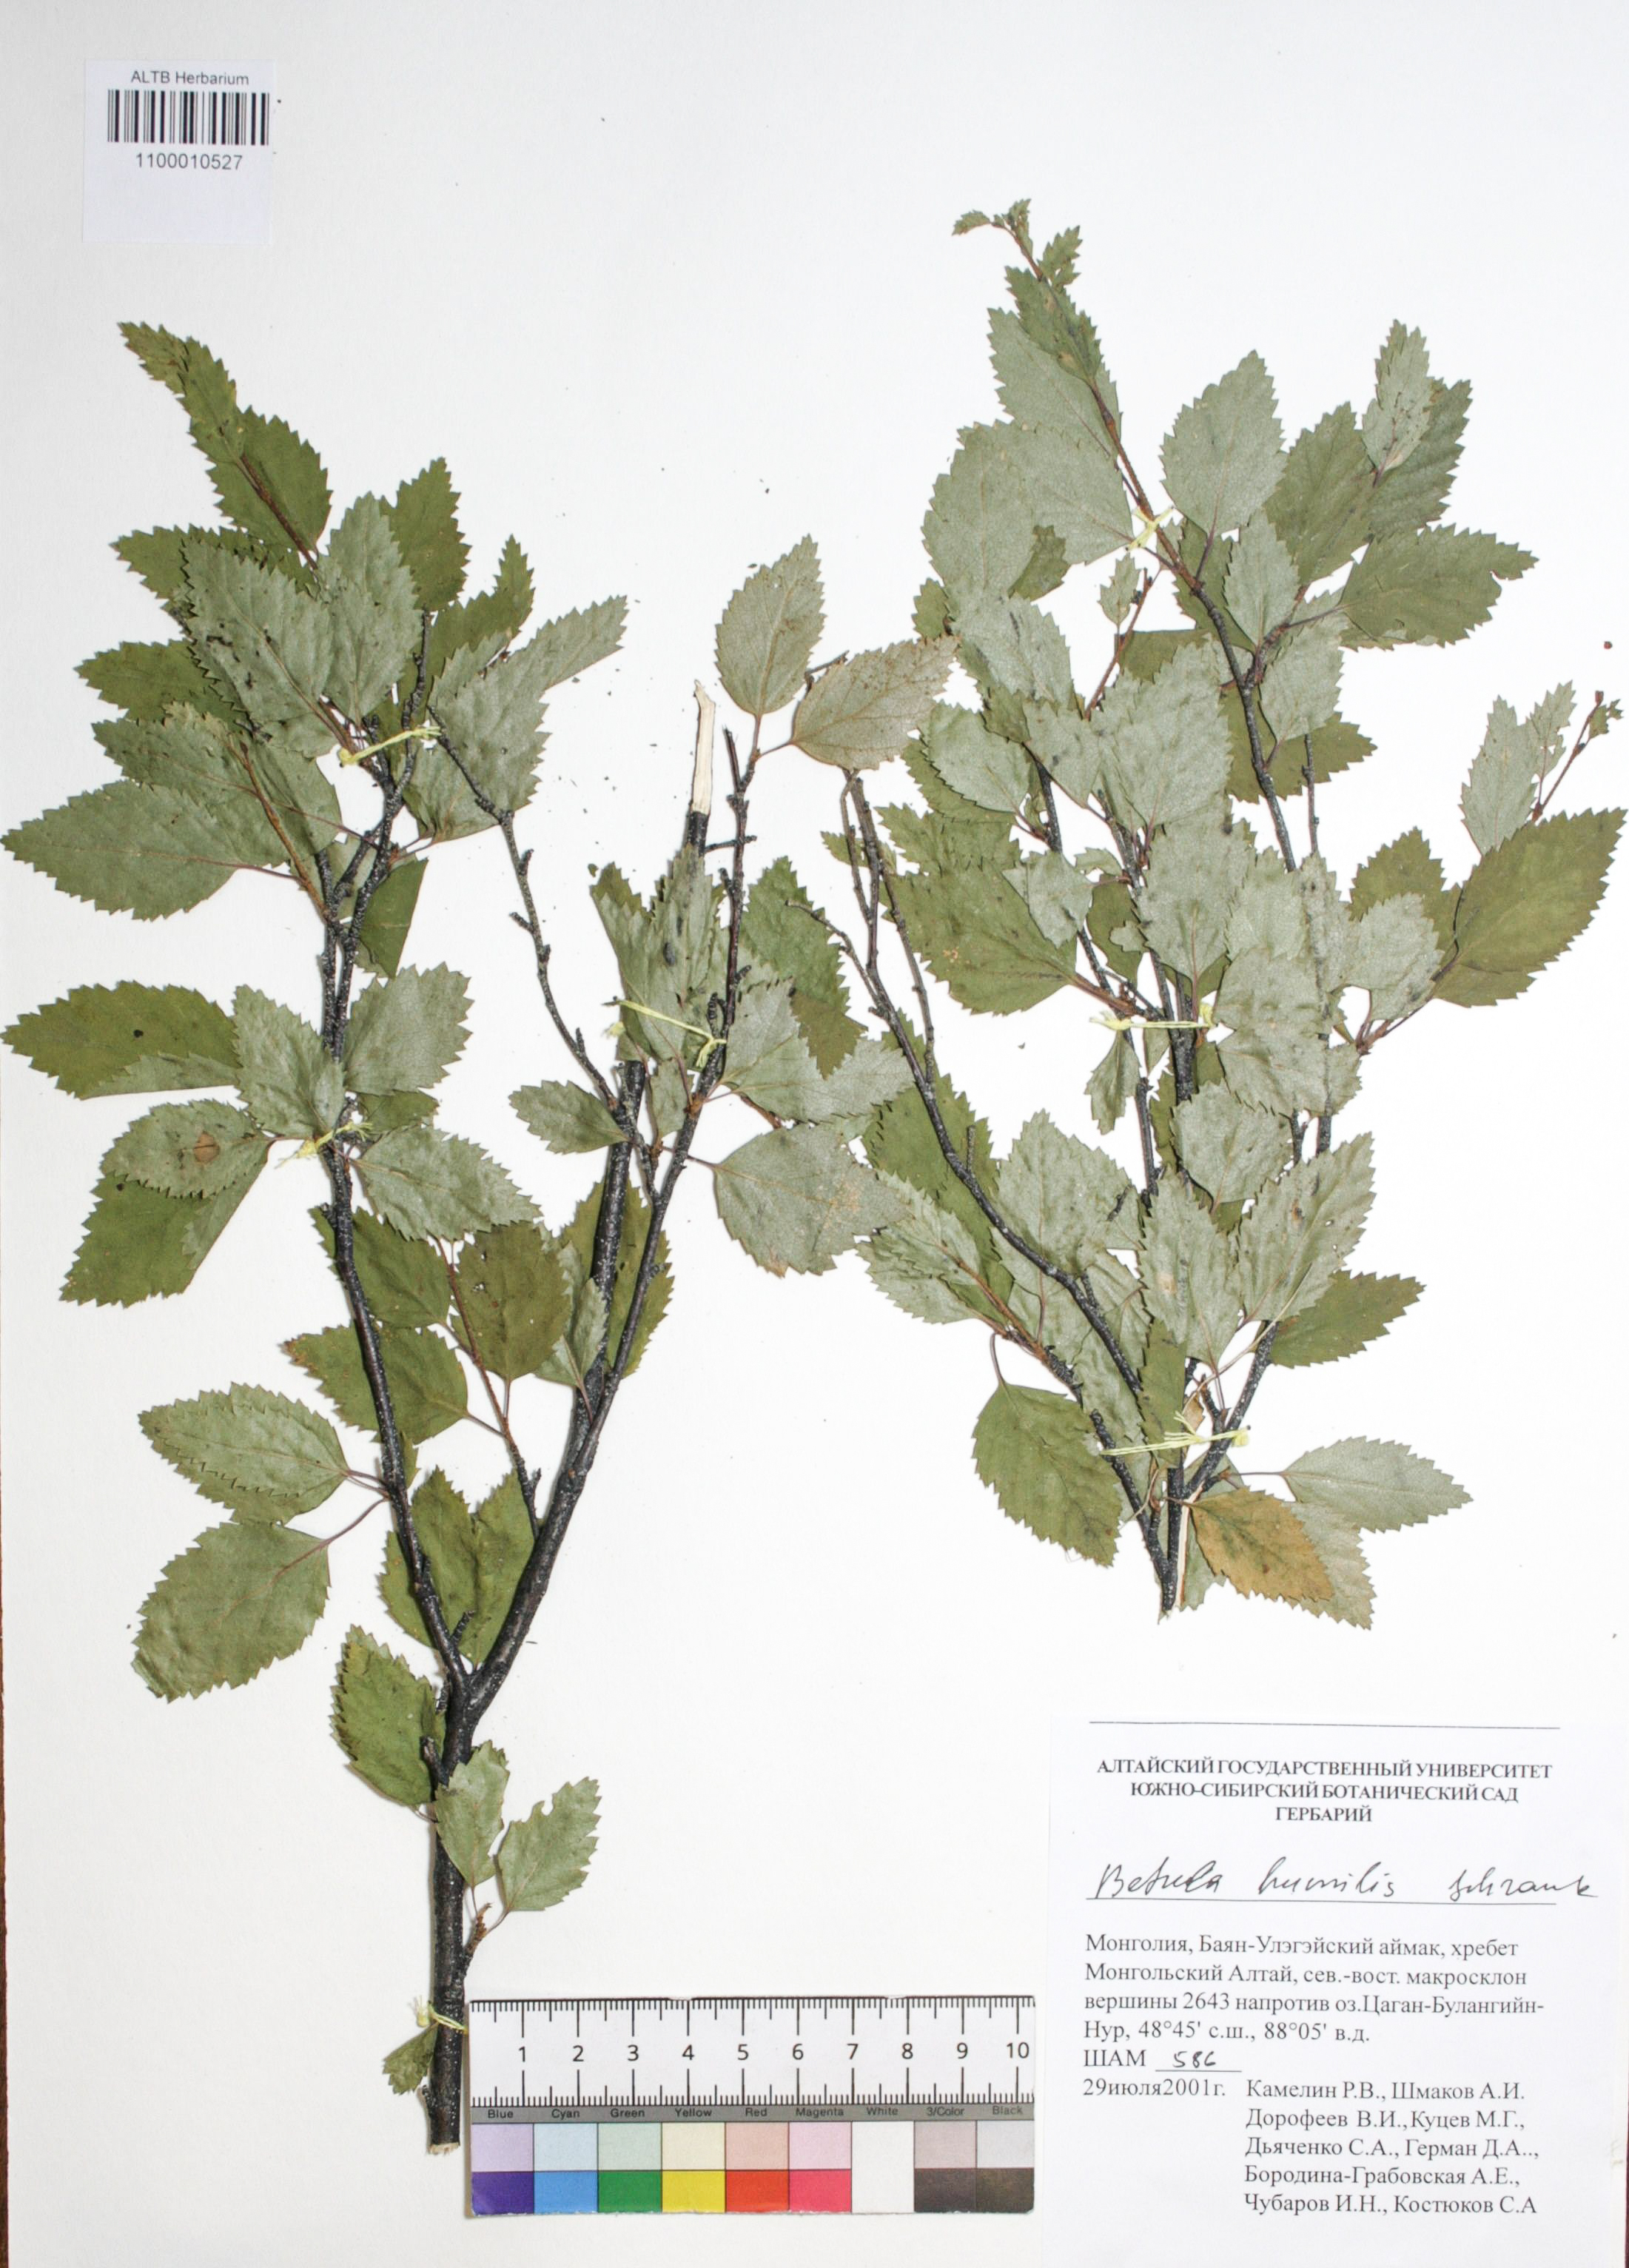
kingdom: Plantae
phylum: Tracheophyta
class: Magnoliopsida
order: Fagales
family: Betulaceae
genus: Betula
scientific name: Betula humilis
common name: Shrubby birch
